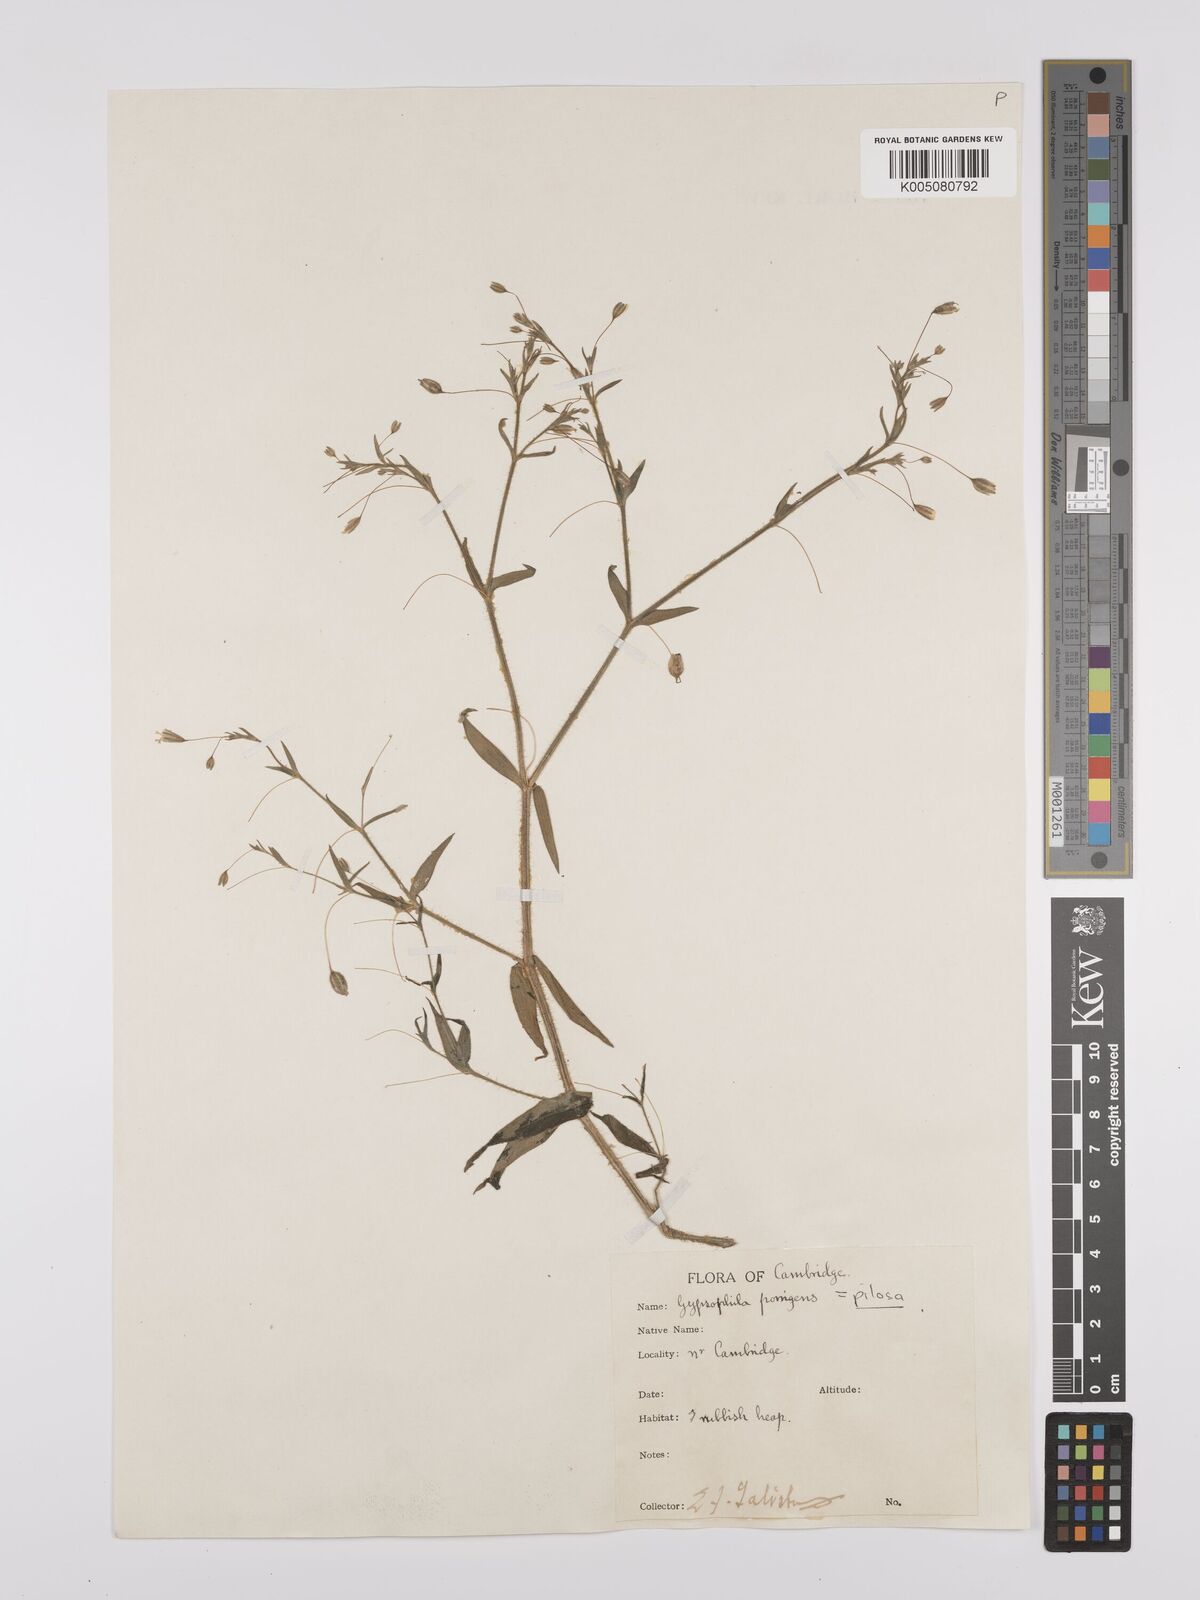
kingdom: Plantae
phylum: Tracheophyta
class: Magnoliopsida
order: Caryophyllales
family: Caryophyllaceae
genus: Gypsophila
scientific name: Gypsophila pilosa
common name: Turkish baby's-breath
